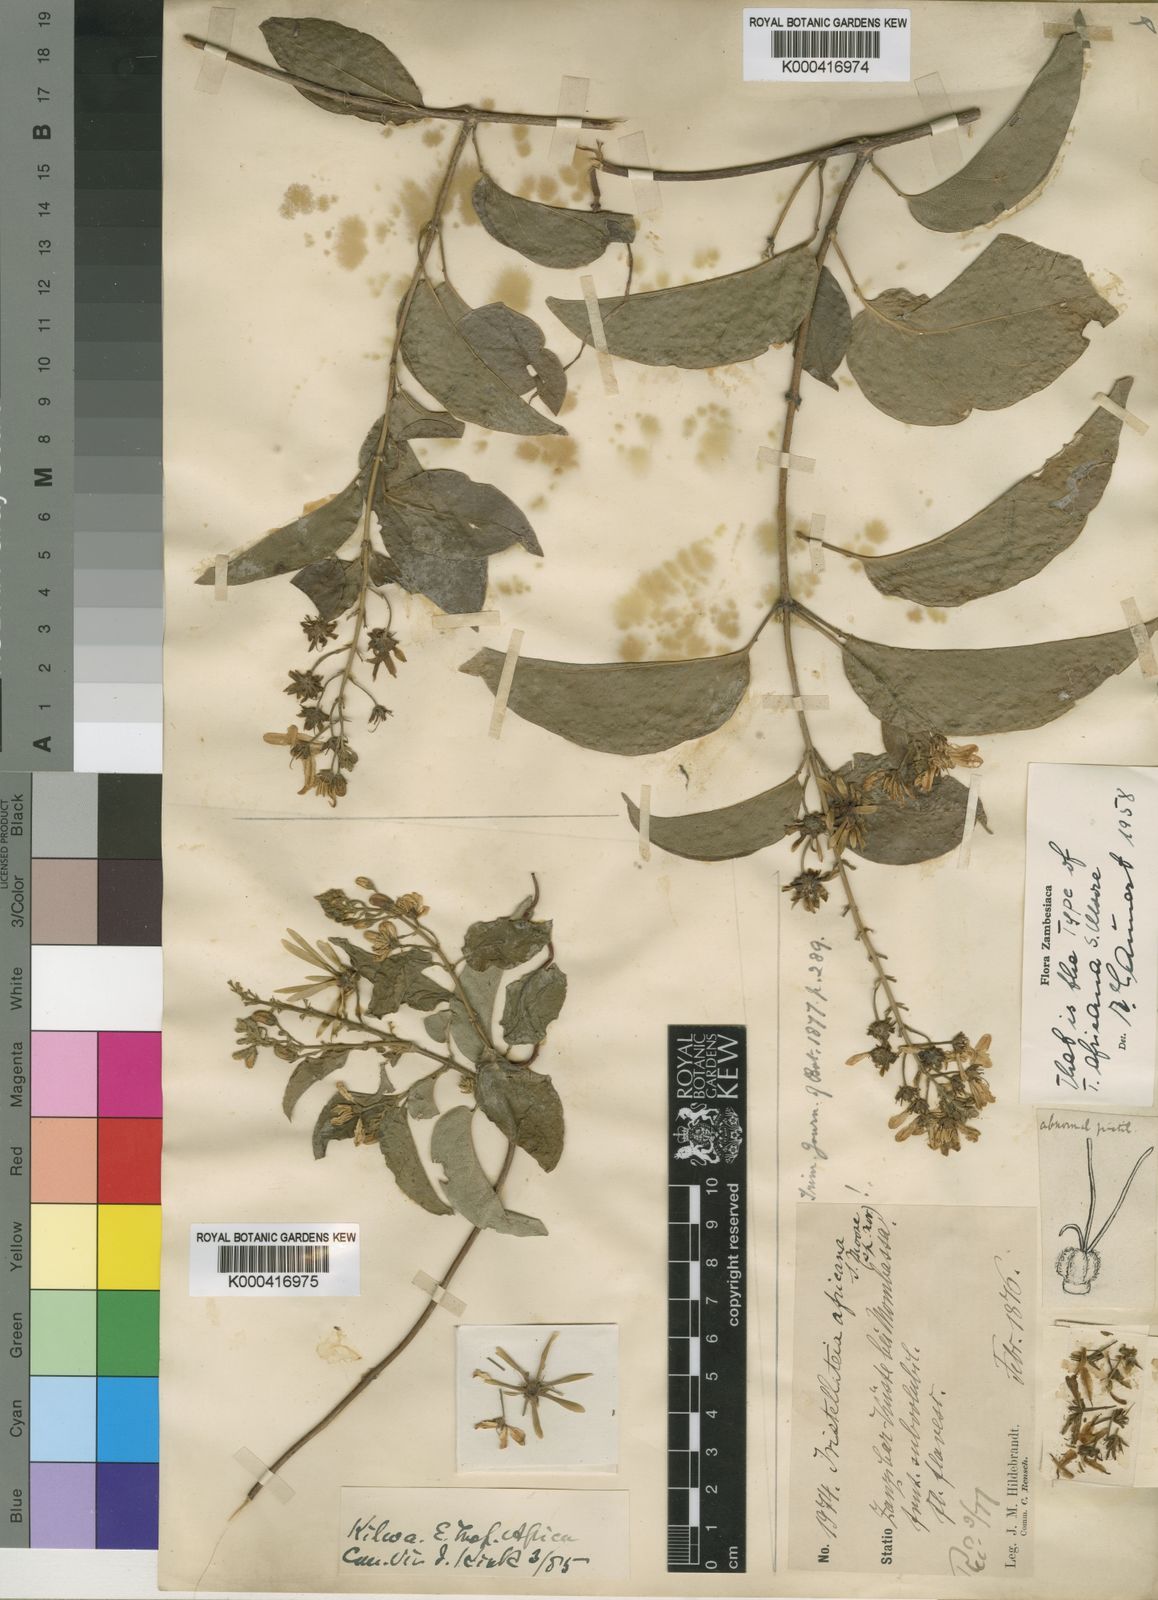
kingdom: Plantae
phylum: Tracheophyta
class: Magnoliopsida
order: Malpighiales
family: Malpighiaceae
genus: Tristellateia
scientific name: Tristellateia africana
